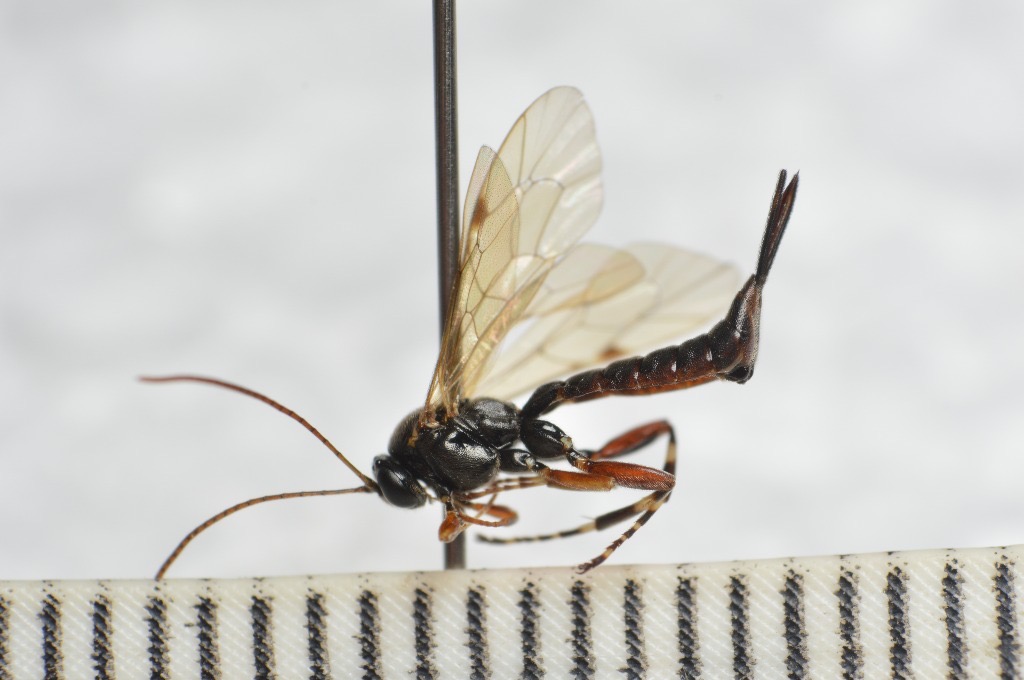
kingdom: Animalia
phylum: Arthropoda
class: Insecta
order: Hymenoptera
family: Ichneumonidae
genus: Itoplectis
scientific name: Itoplectis maculator
